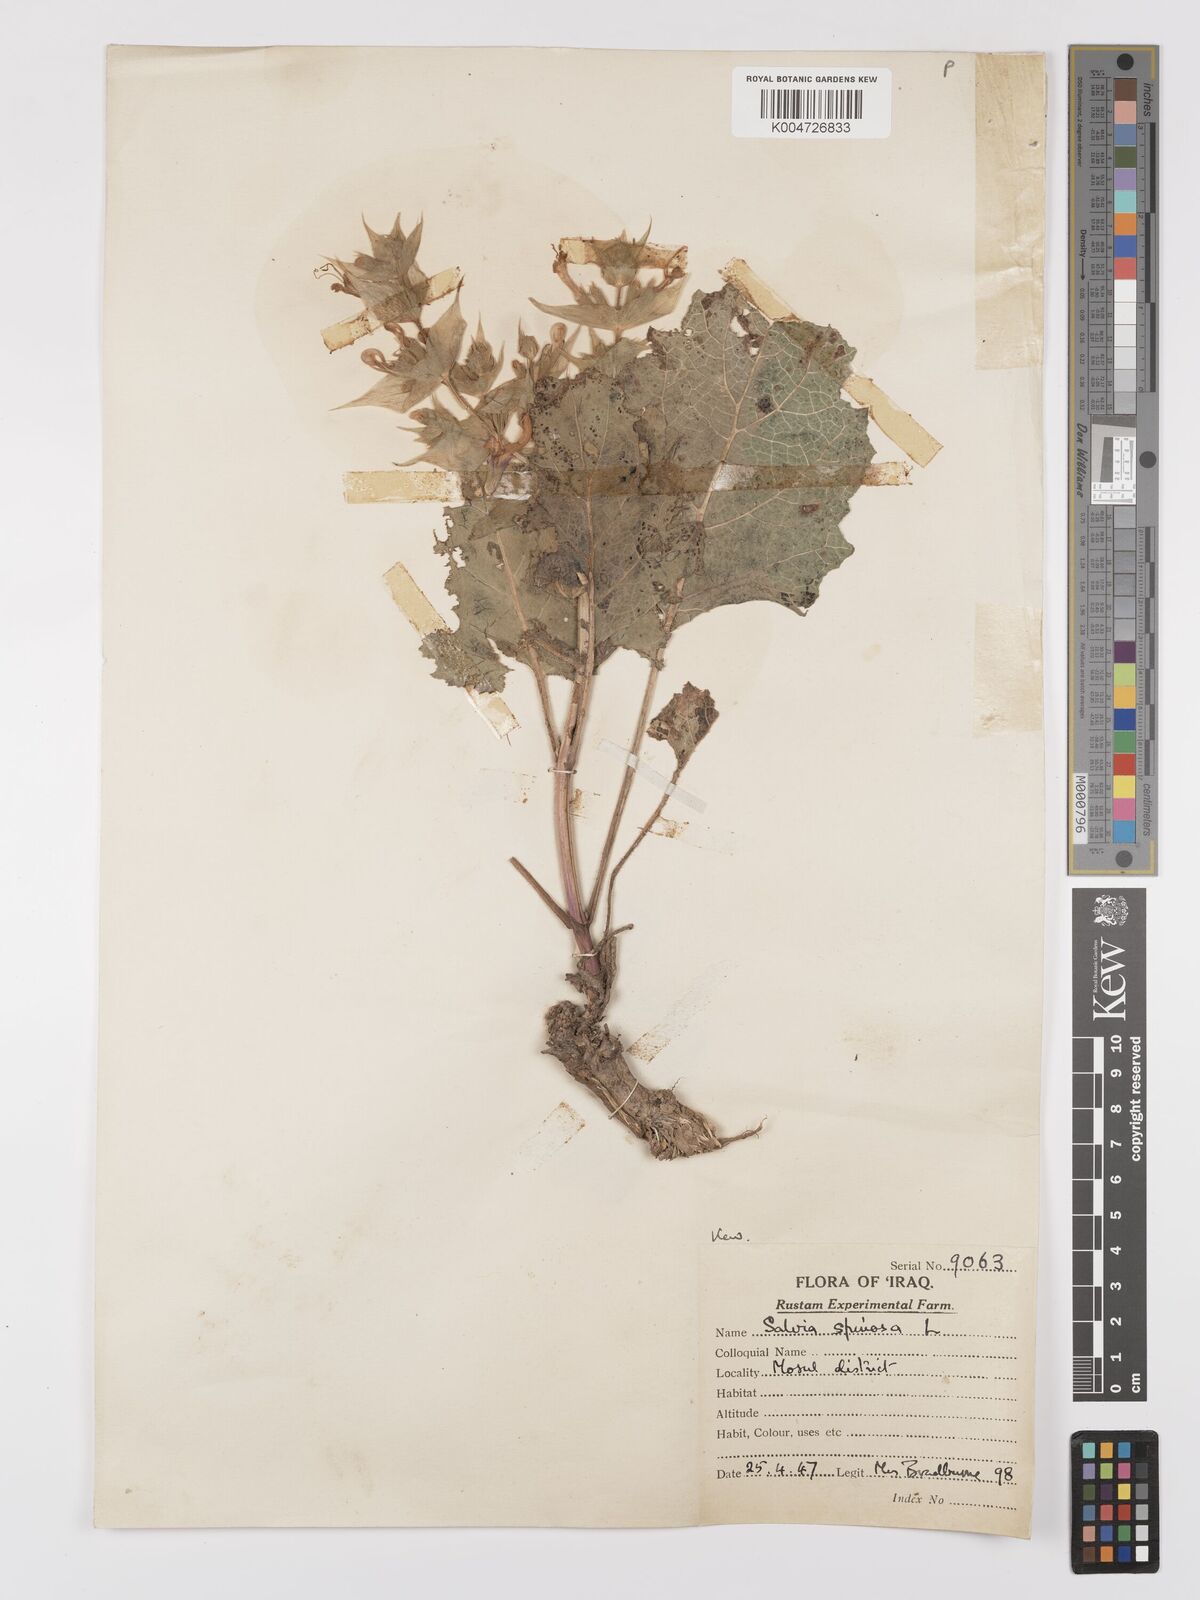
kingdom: Plantae
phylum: Tracheophyta
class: Magnoliopsida
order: Lamiales
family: Lamiaceae
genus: Salvia
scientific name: Salvia
